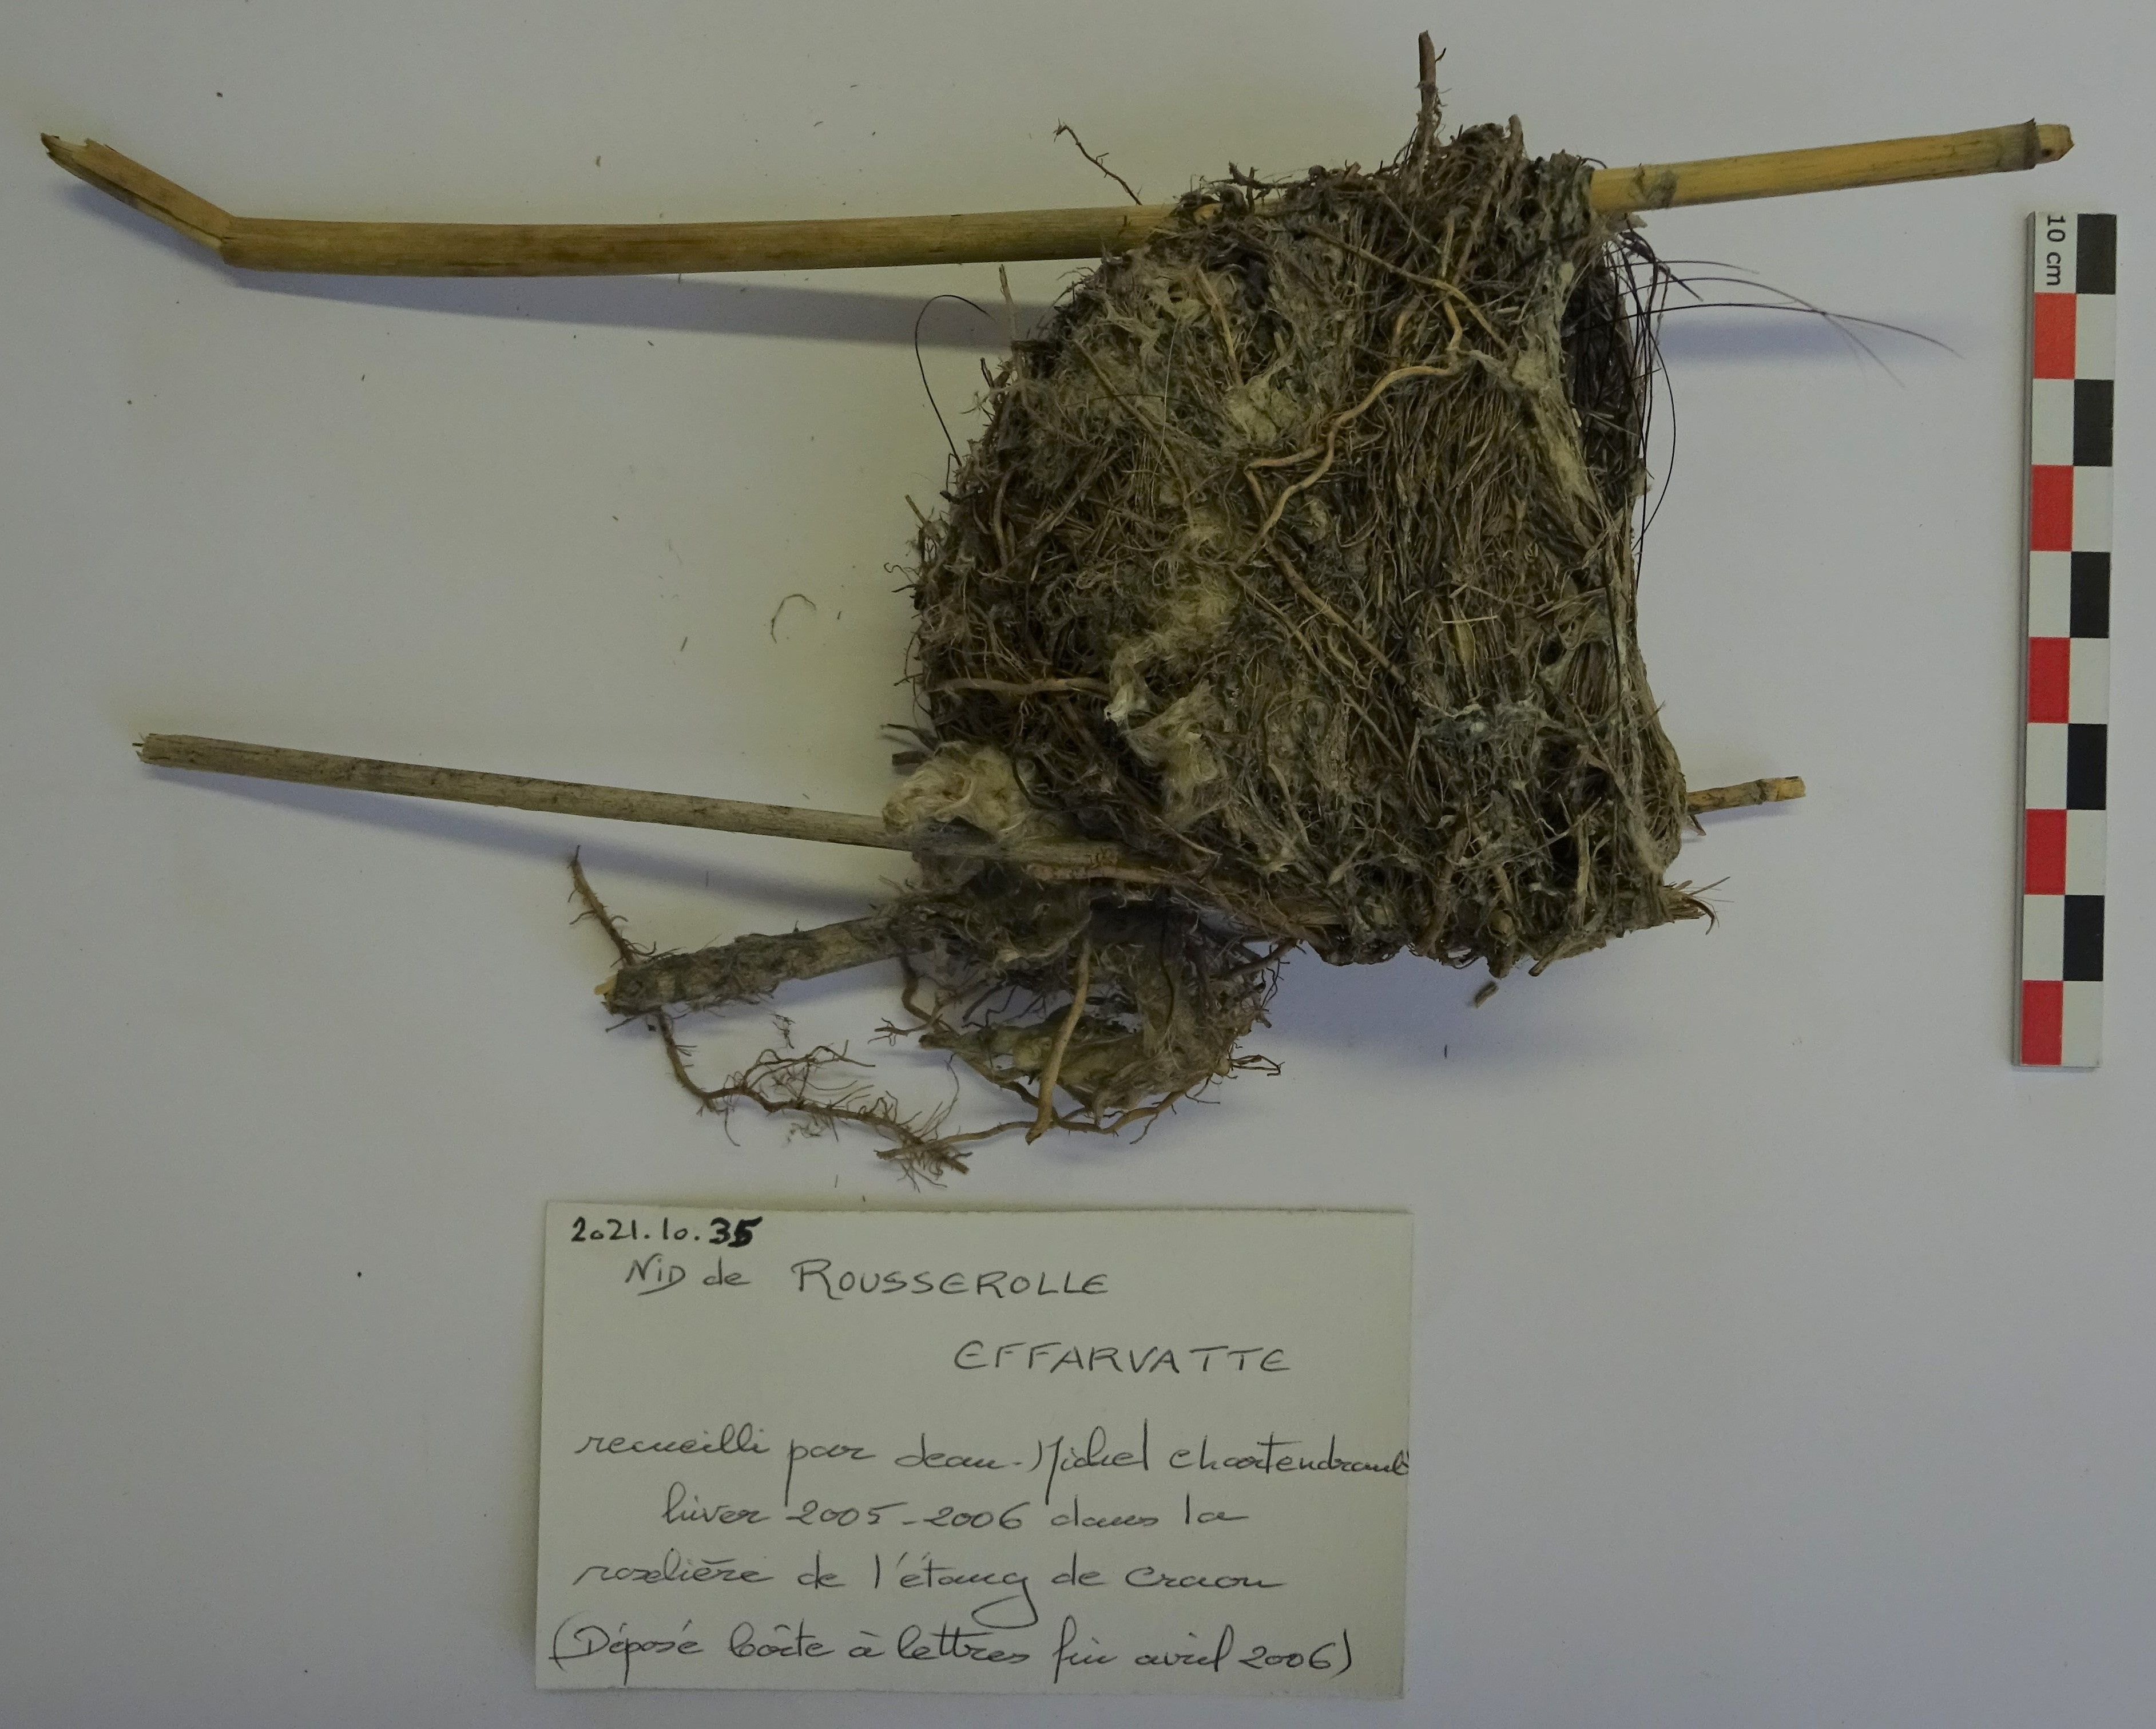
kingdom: Animalia
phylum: Chordata
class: Aves
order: Passeriformes
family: Acrocephalidae
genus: Acrocephalus
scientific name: Acrocephalus scirpaceus
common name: Eurasian reed warbler
